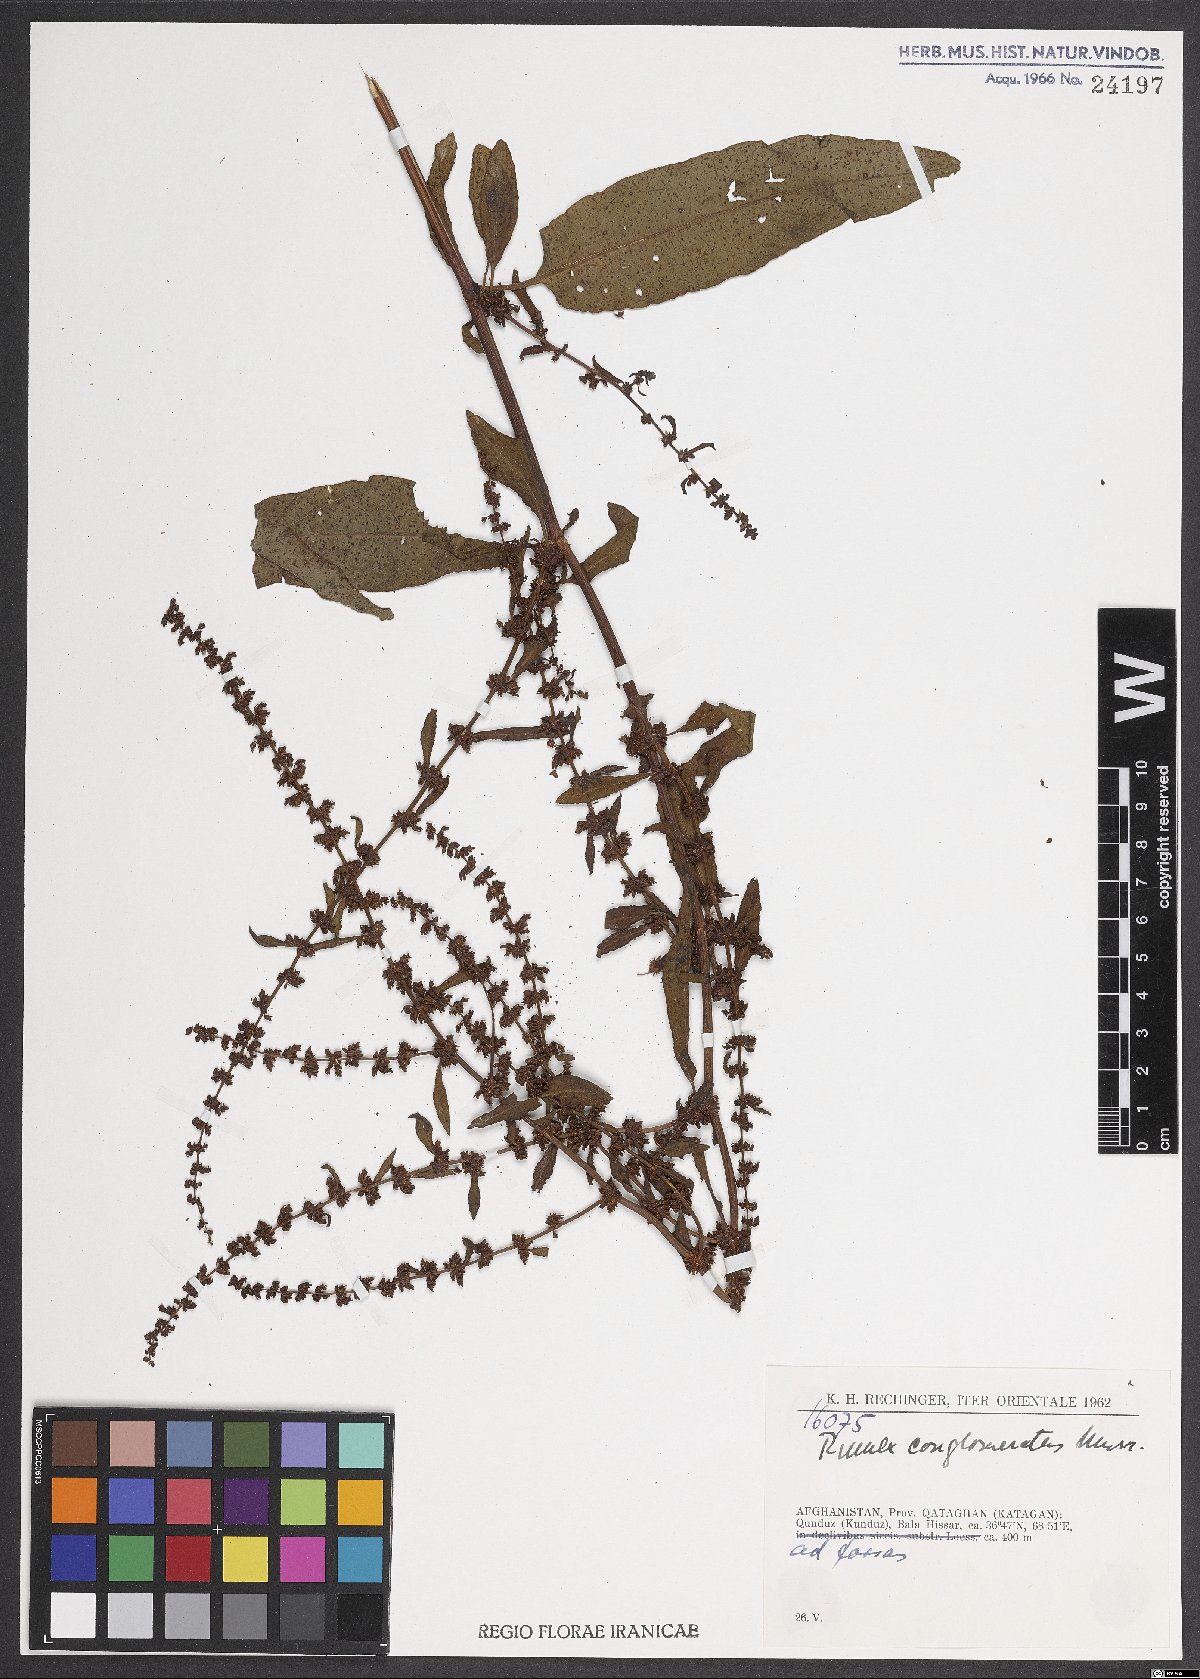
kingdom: Plantae
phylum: Tracheophyta
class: Magnoliopsida
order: Caryophyllales
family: Polygonaceae
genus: Rumex
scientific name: Rumex conglomeratus
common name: Clustered dock
